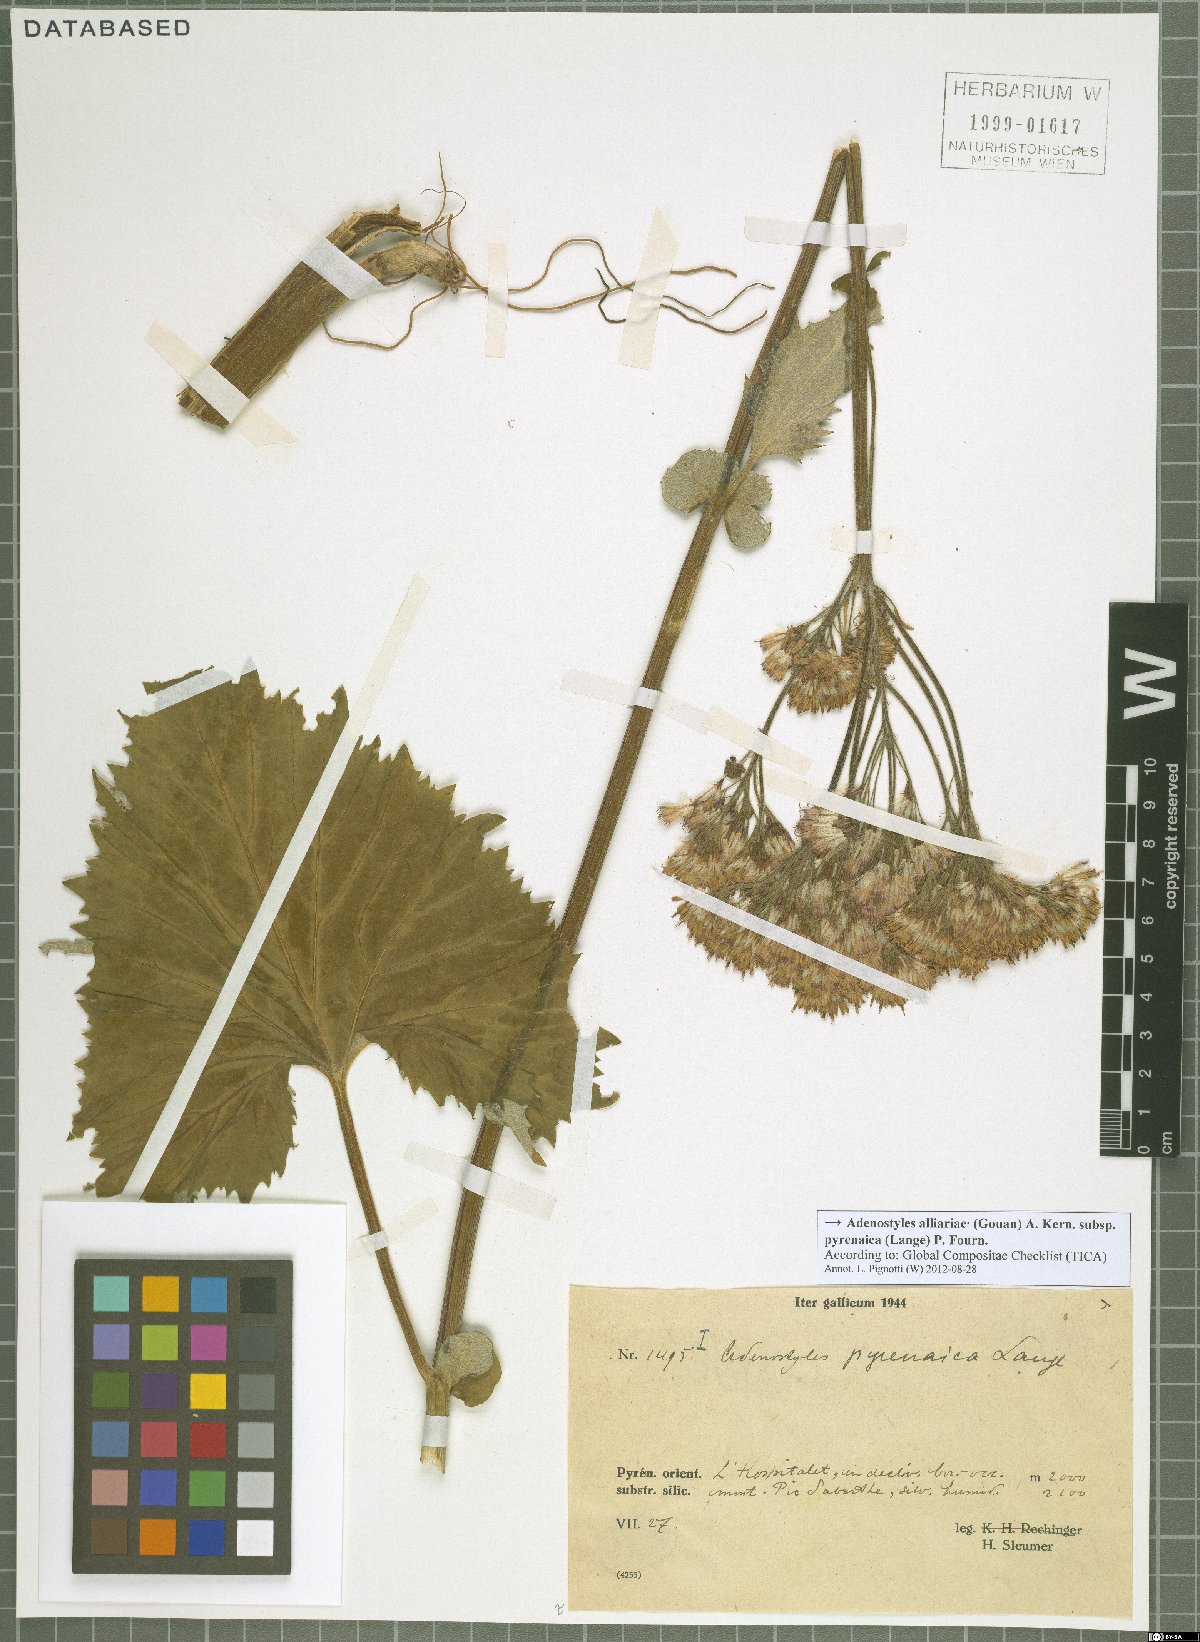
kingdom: Plantae
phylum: Tracheophyta
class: Magnoliopsida
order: Asterales
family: Asteraceae
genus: Adenostyles
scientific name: Adenostyles alpina
